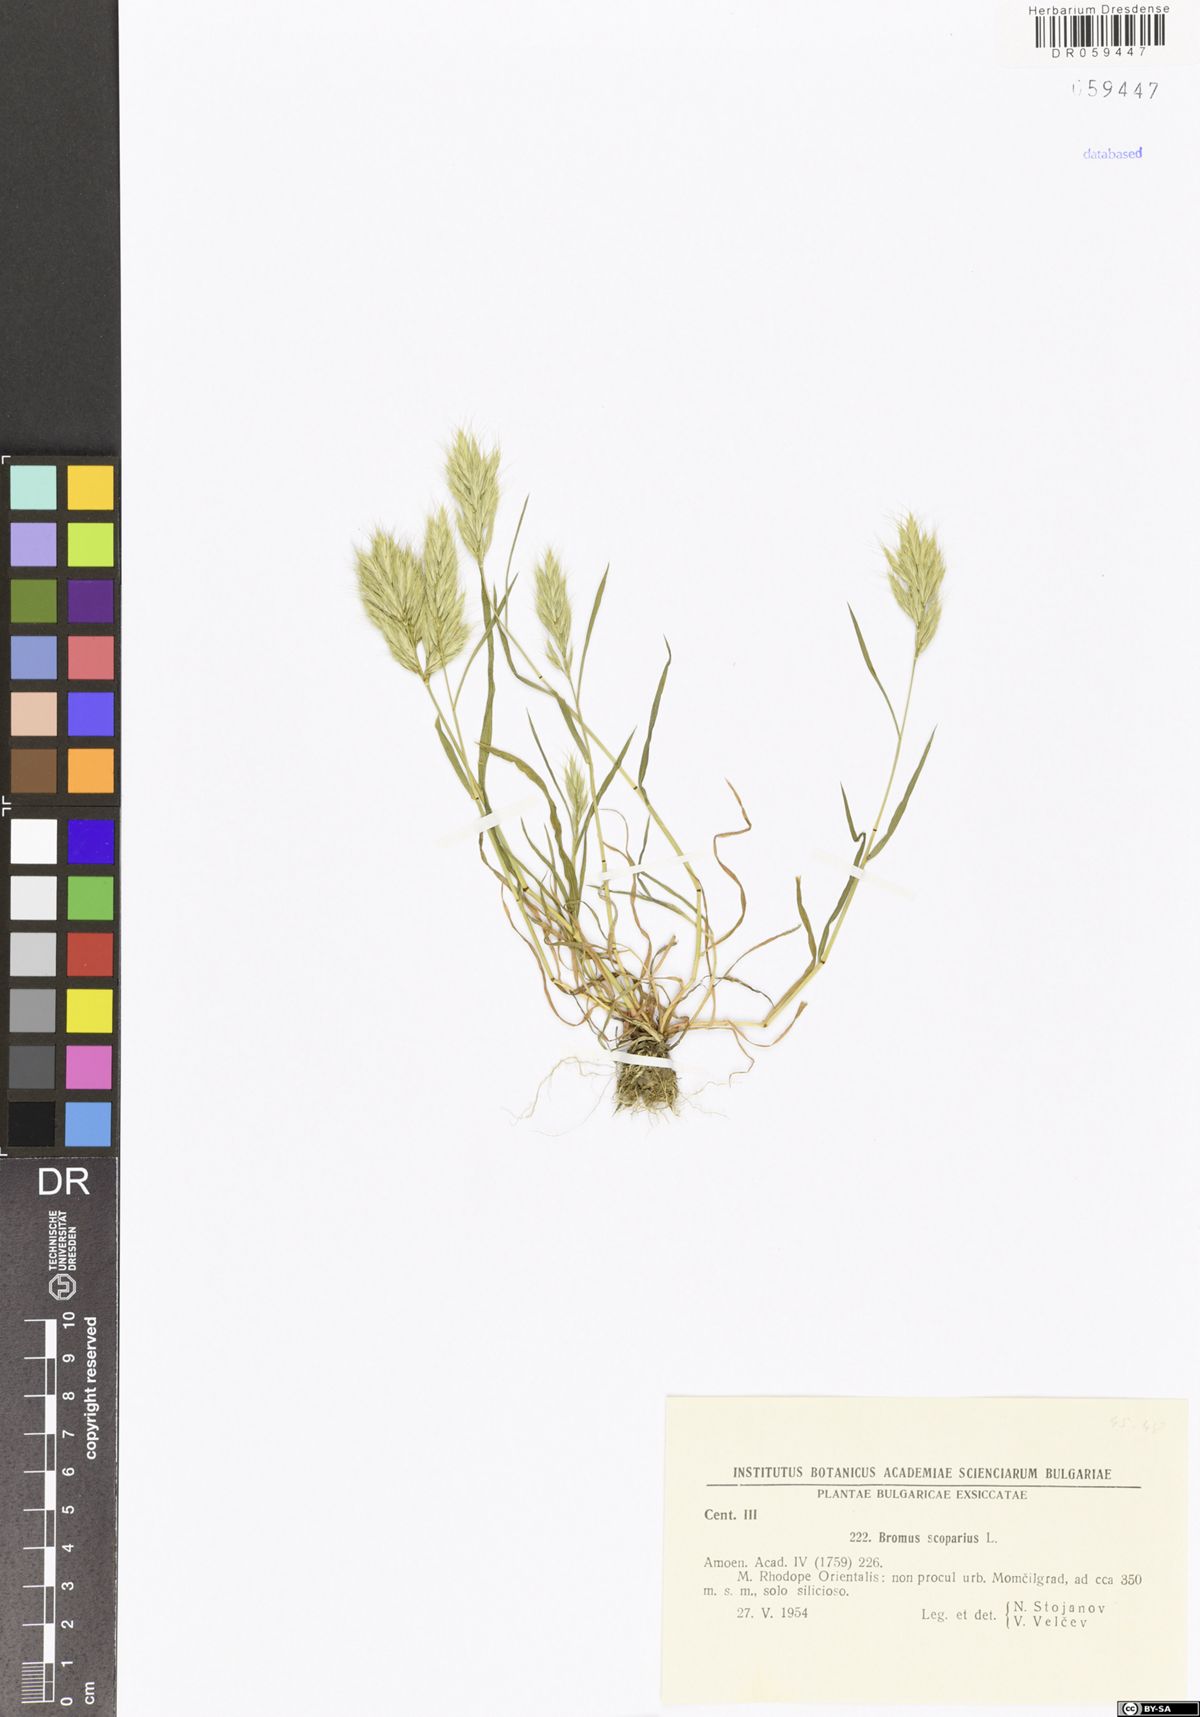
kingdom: Plantae
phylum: Tracheophyta
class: Liliopsida
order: Poales
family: Poaceae
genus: Bromus
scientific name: Bromus scoparius
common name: Broom brome
